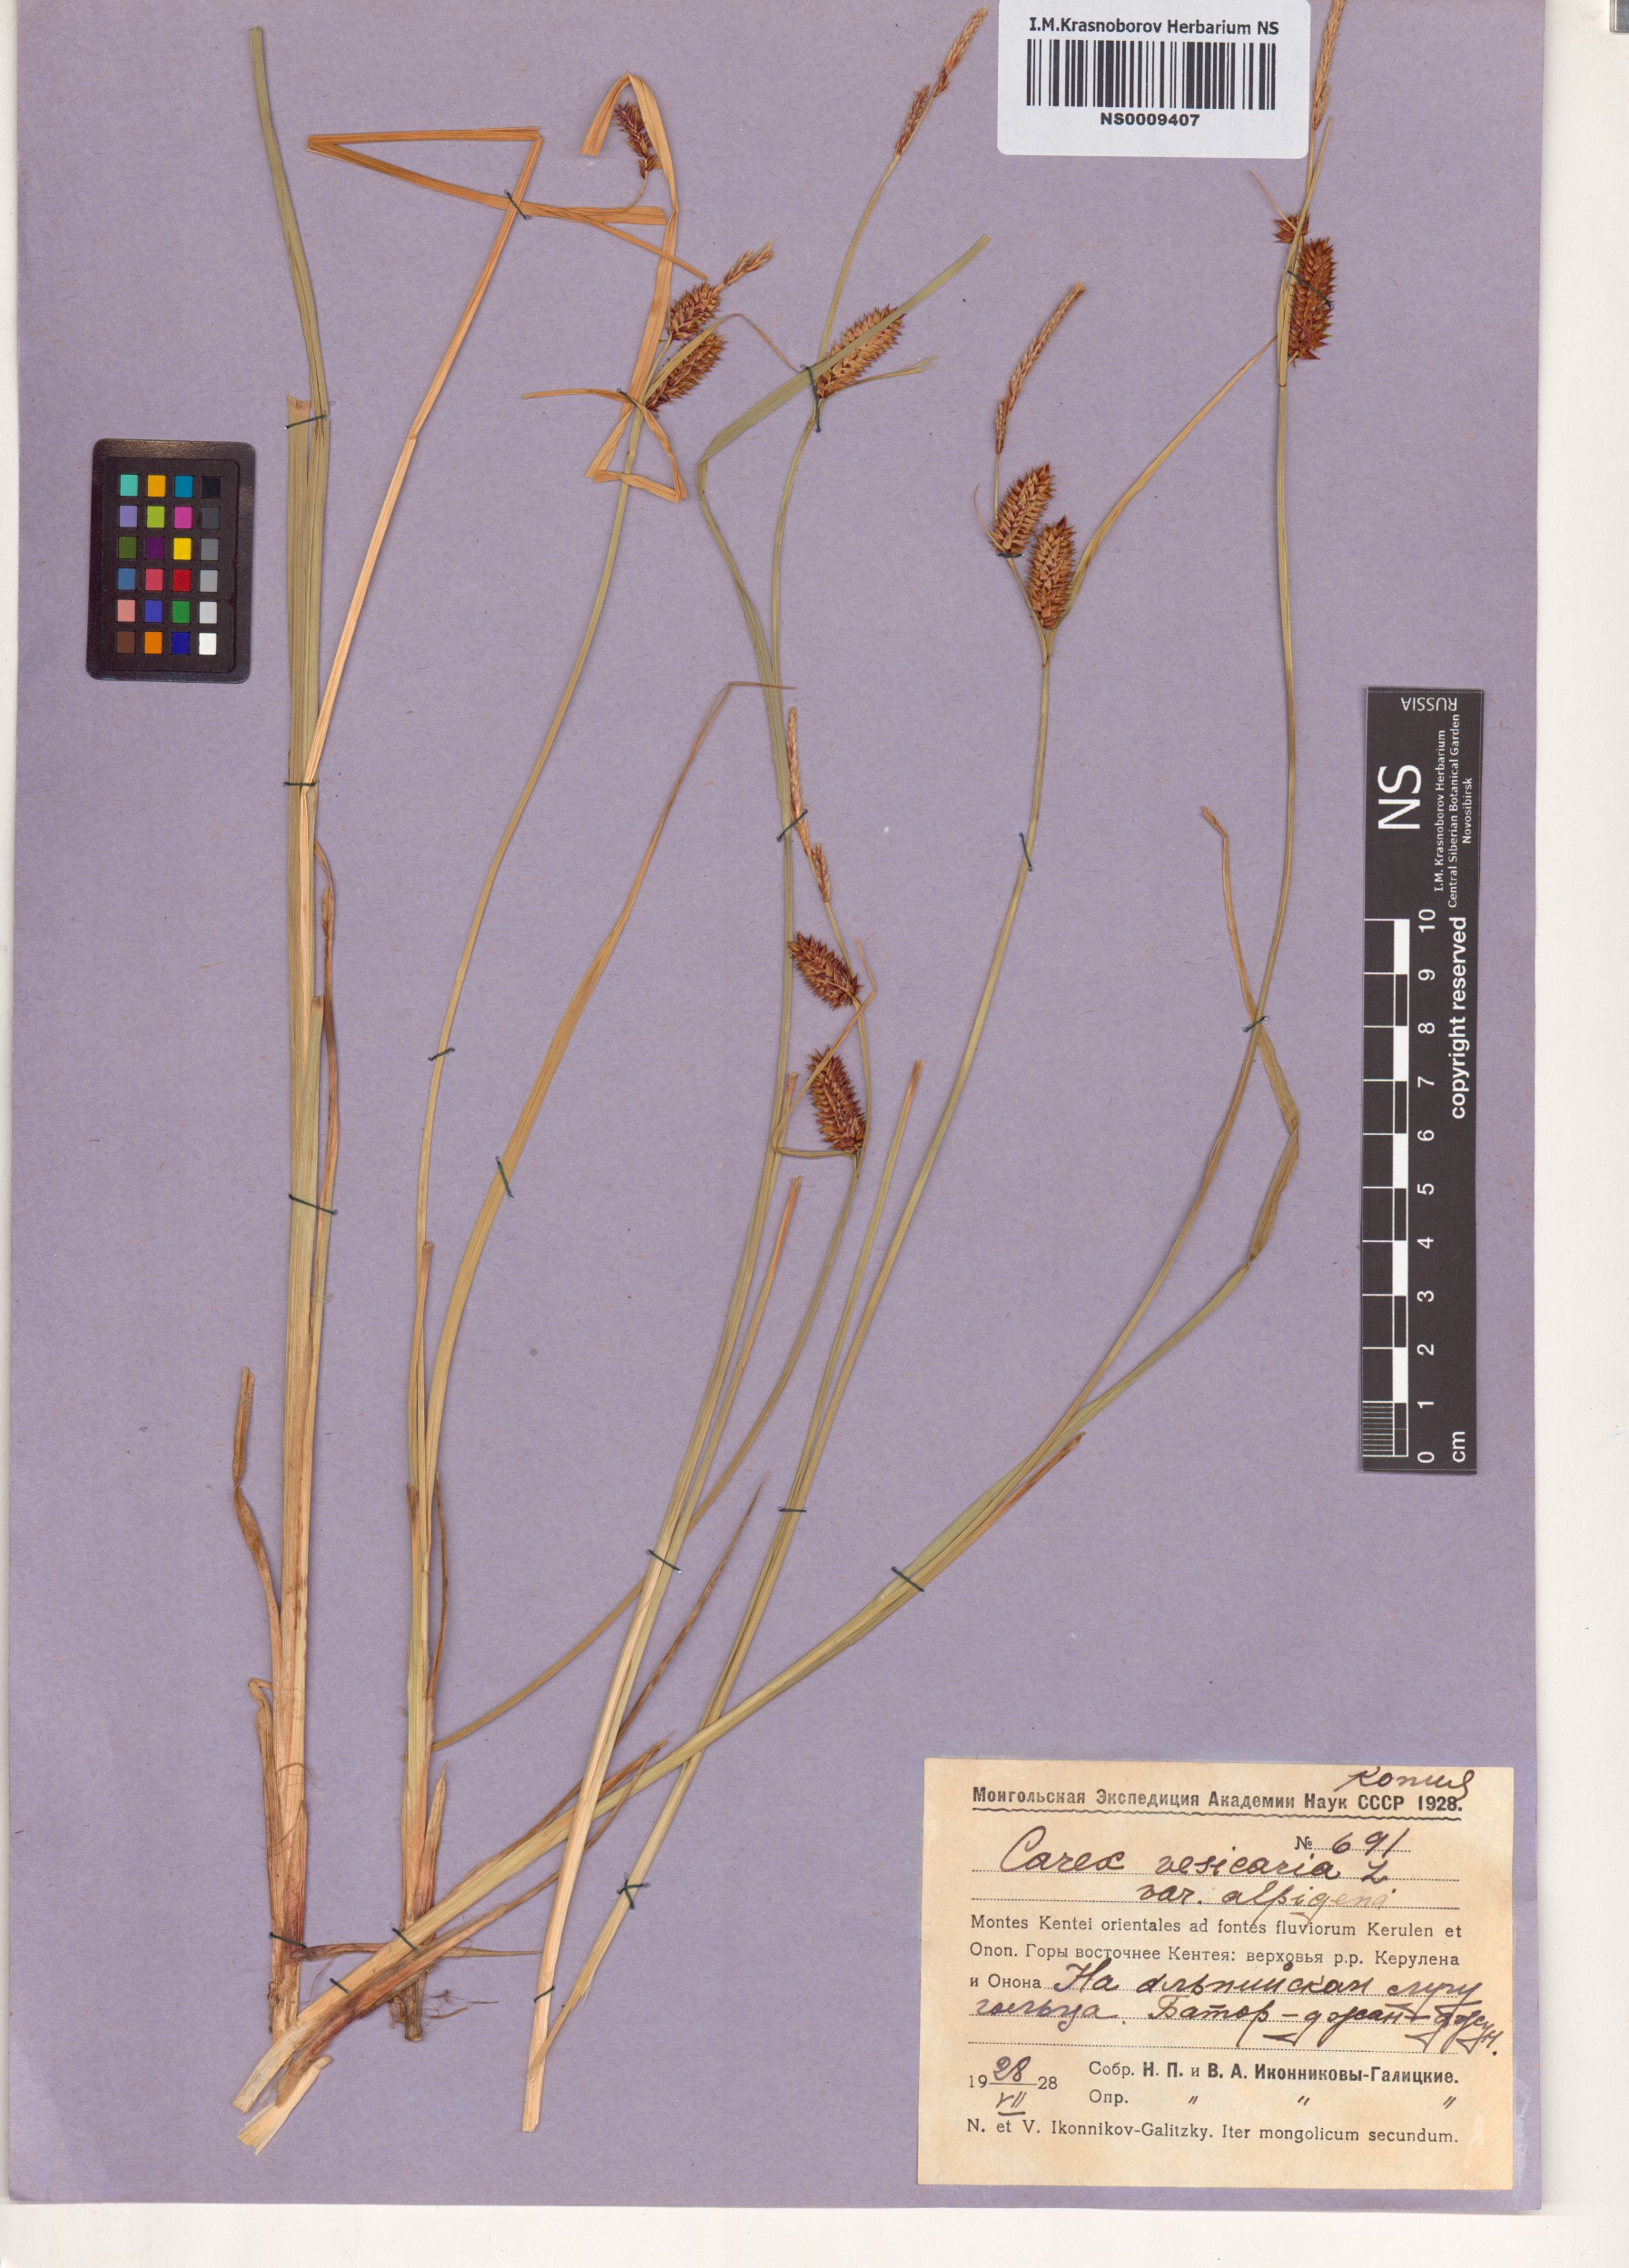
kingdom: Plantae
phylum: Tracheophyta
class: Liliopsida
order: Poales
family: Cyperaceae
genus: Carex
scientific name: Carex vesicaria
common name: Bladder-sedge
